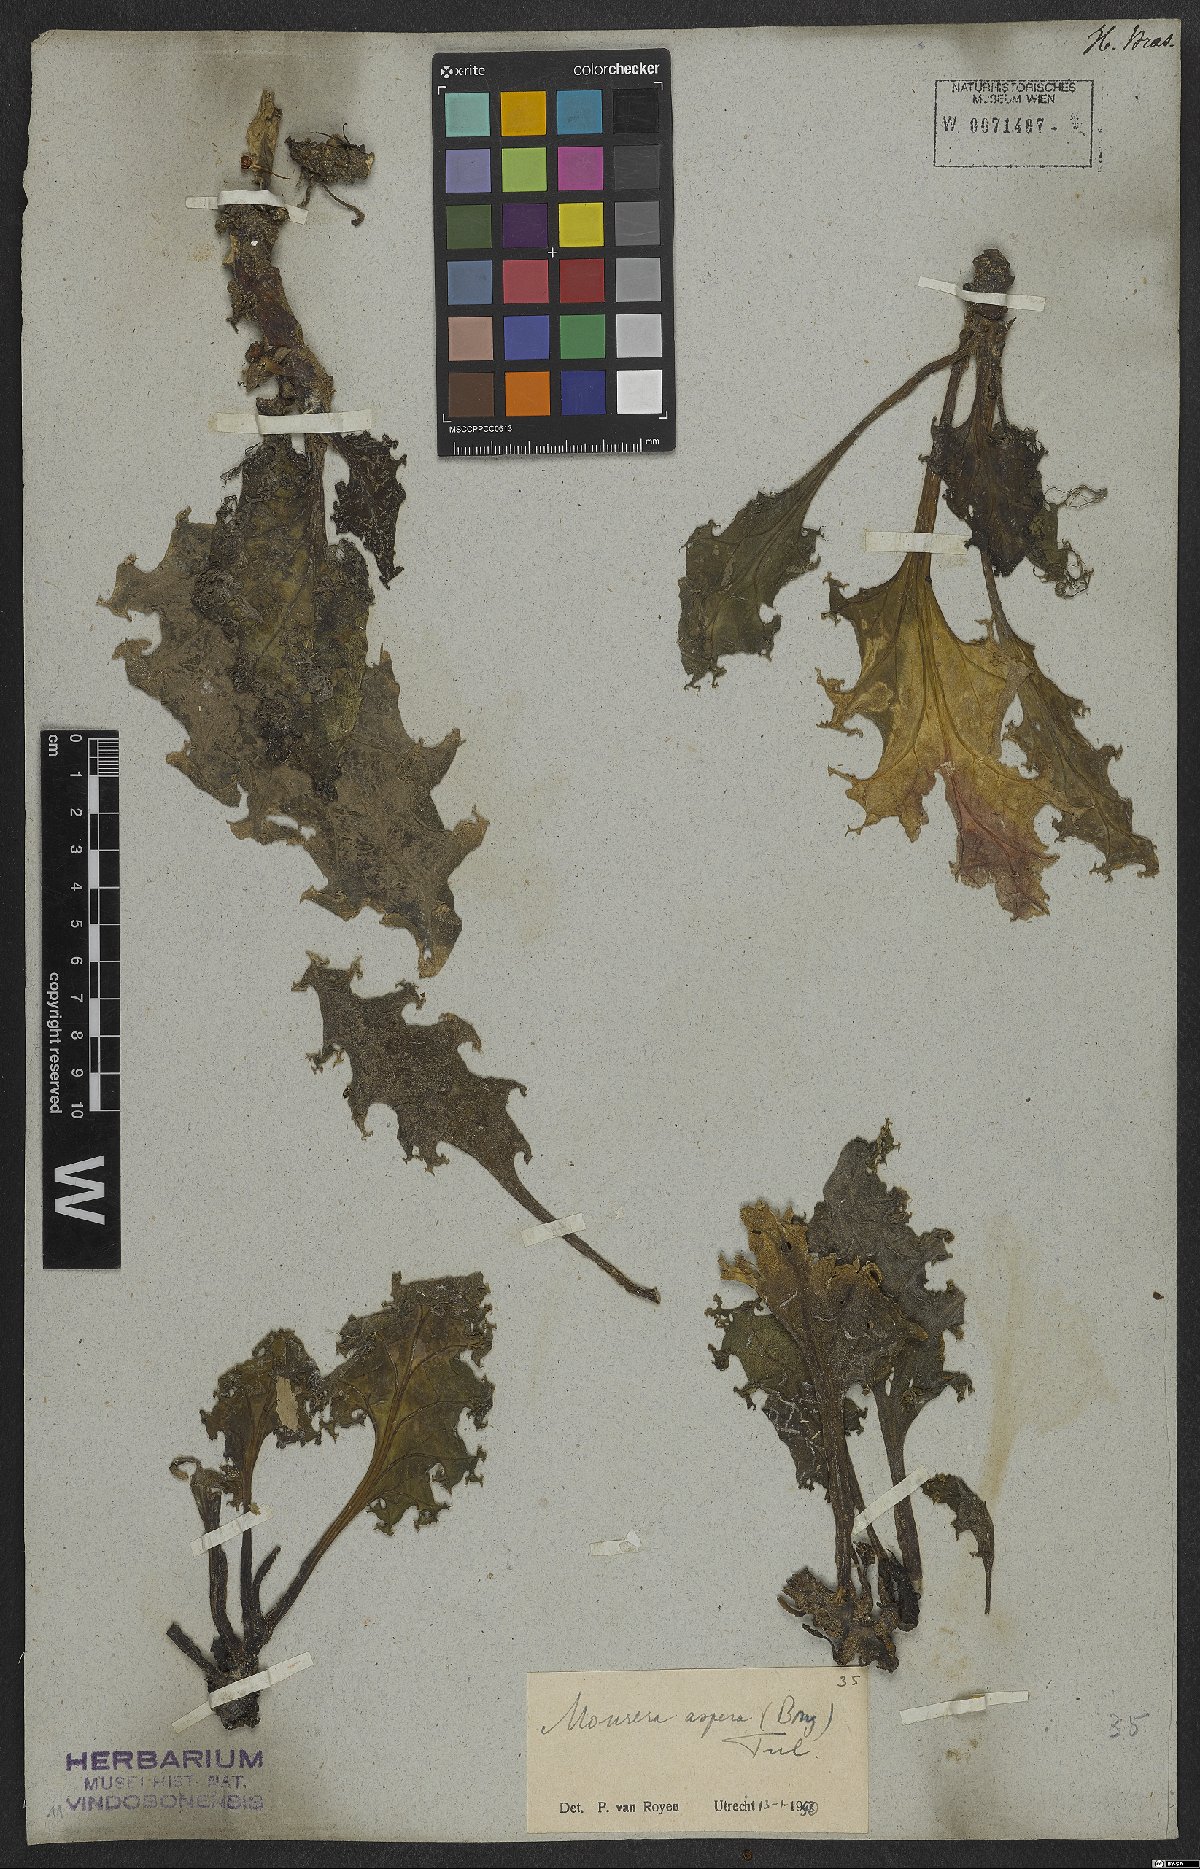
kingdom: Plantae
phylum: Tracheophyta
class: Magnoliopsida
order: Malpighiales
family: Podostemaceae
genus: Mourera
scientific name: Mourera aspera
